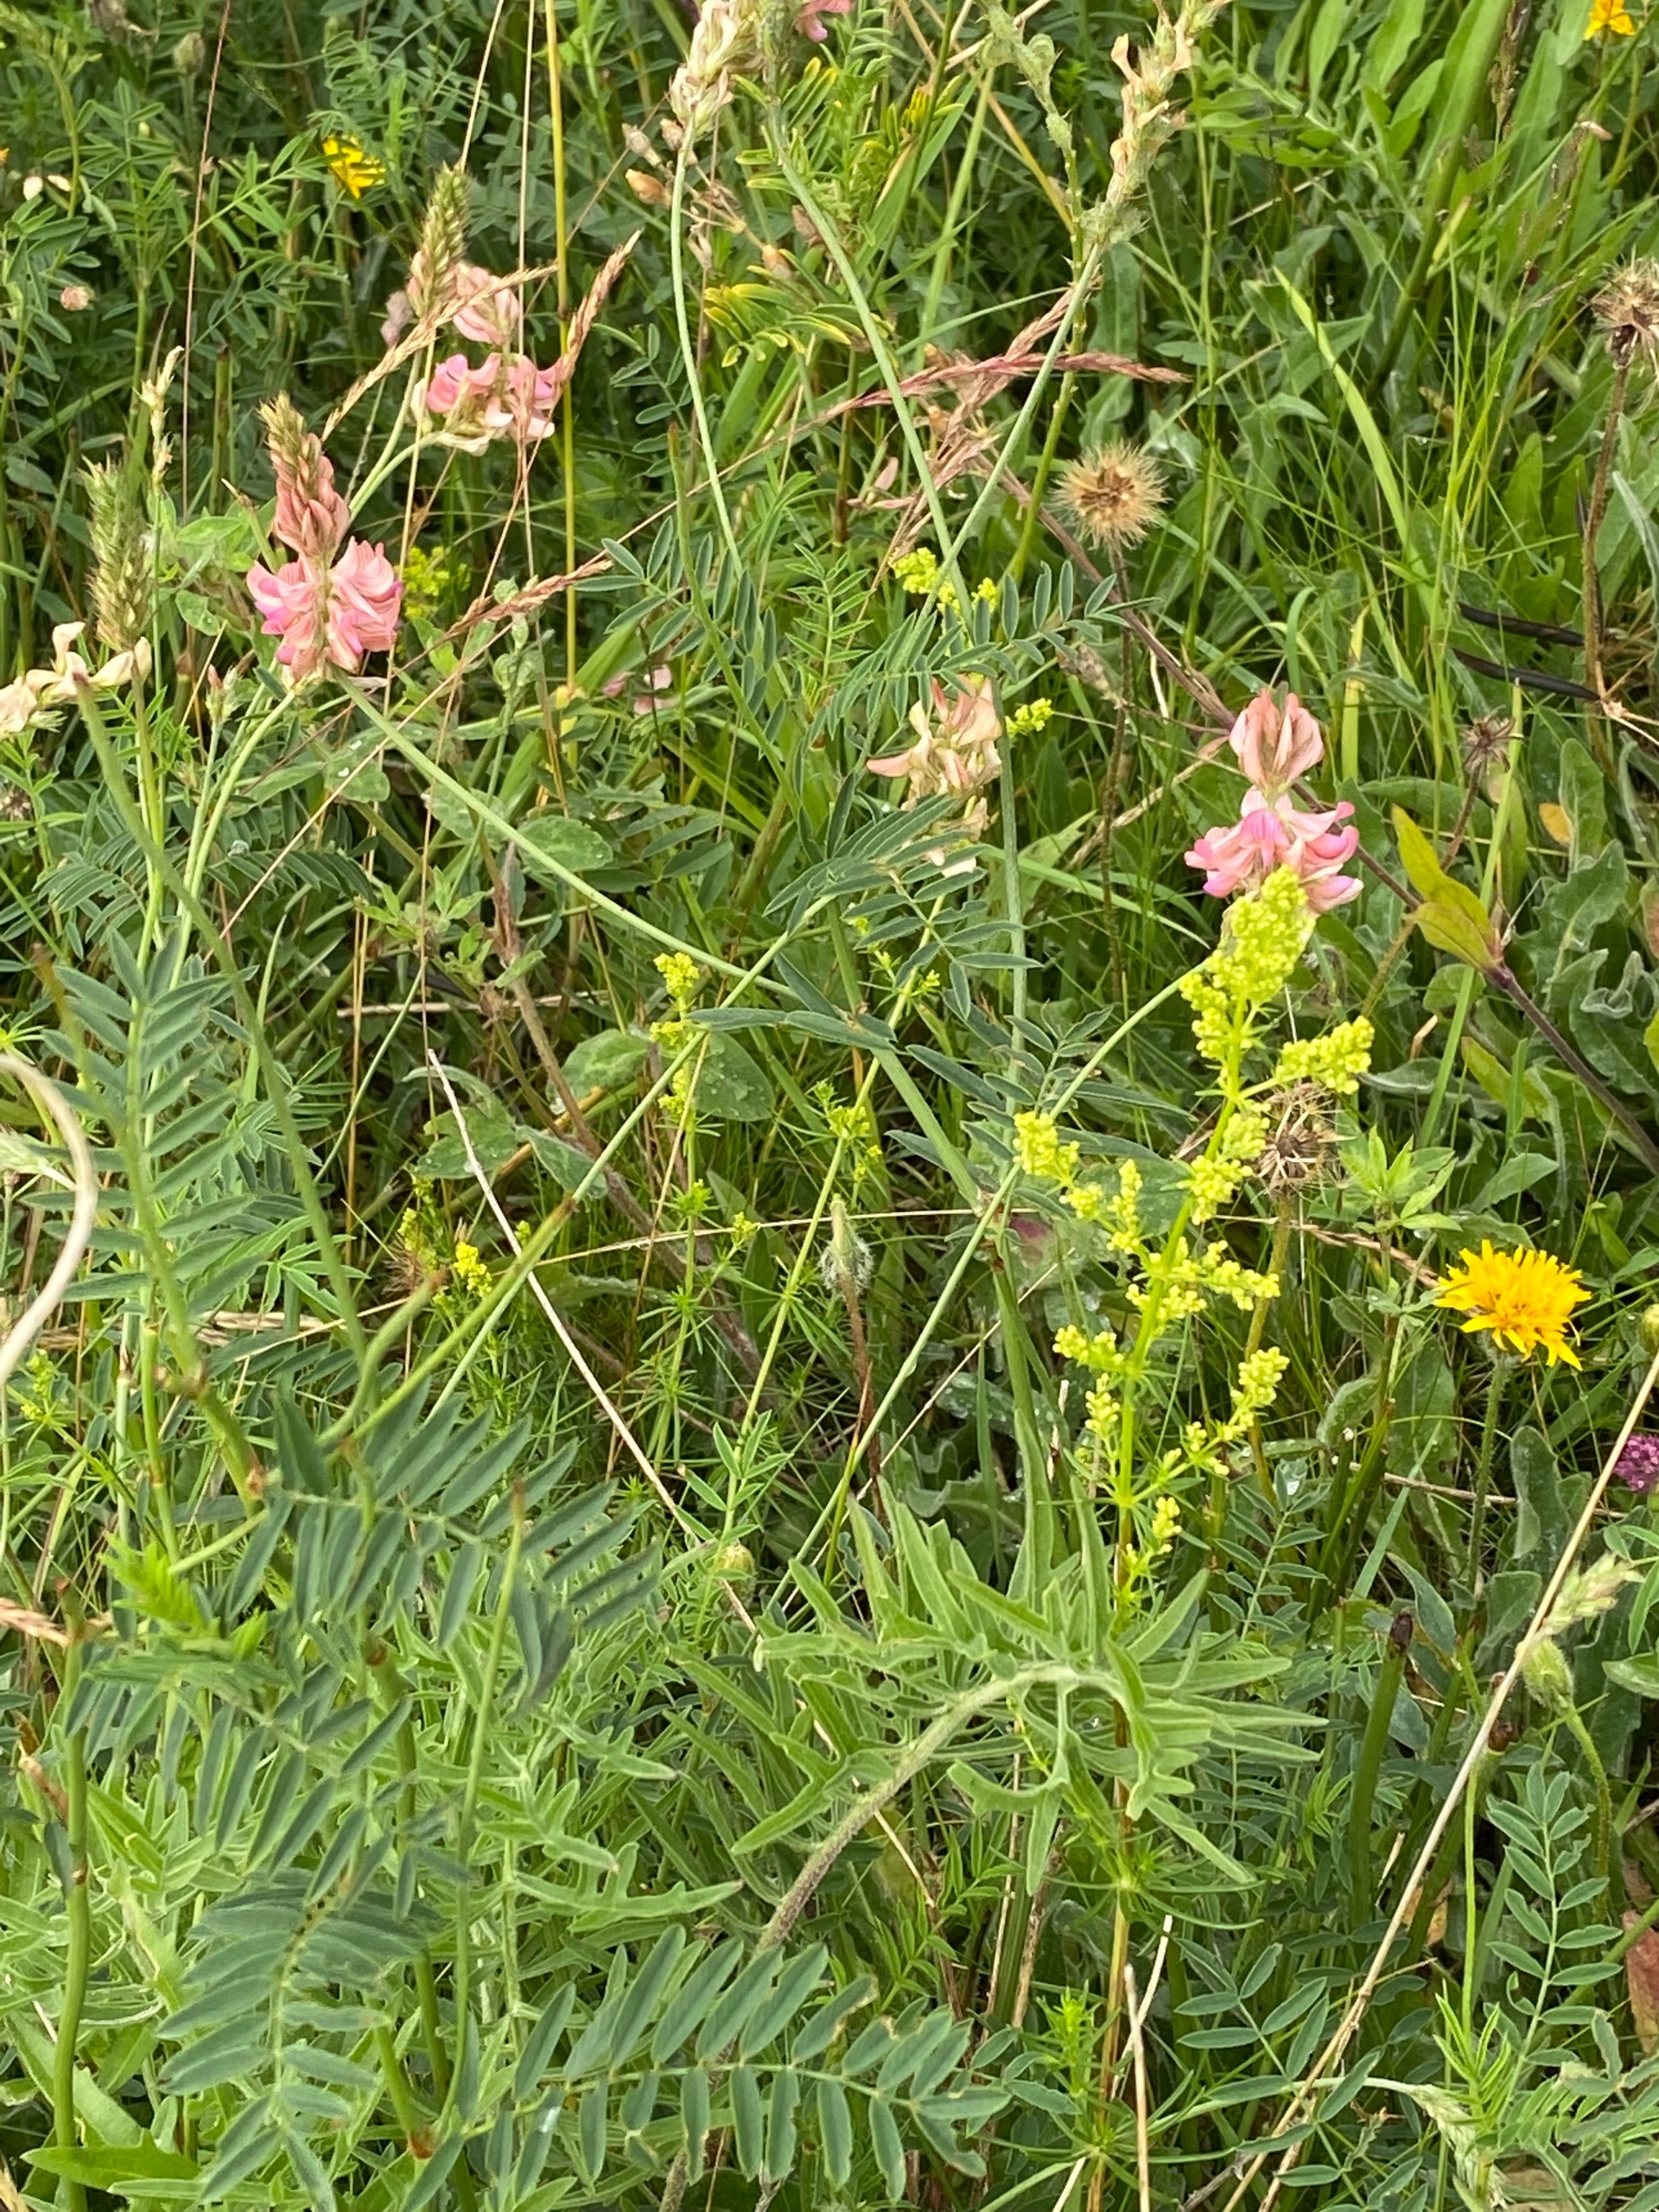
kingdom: Plantae
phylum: Tracheophyta
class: Magnoliopsida
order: Fabales
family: Fabaceae
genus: Onobrychis
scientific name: Onobrychis viciifolia
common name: Esparsette
